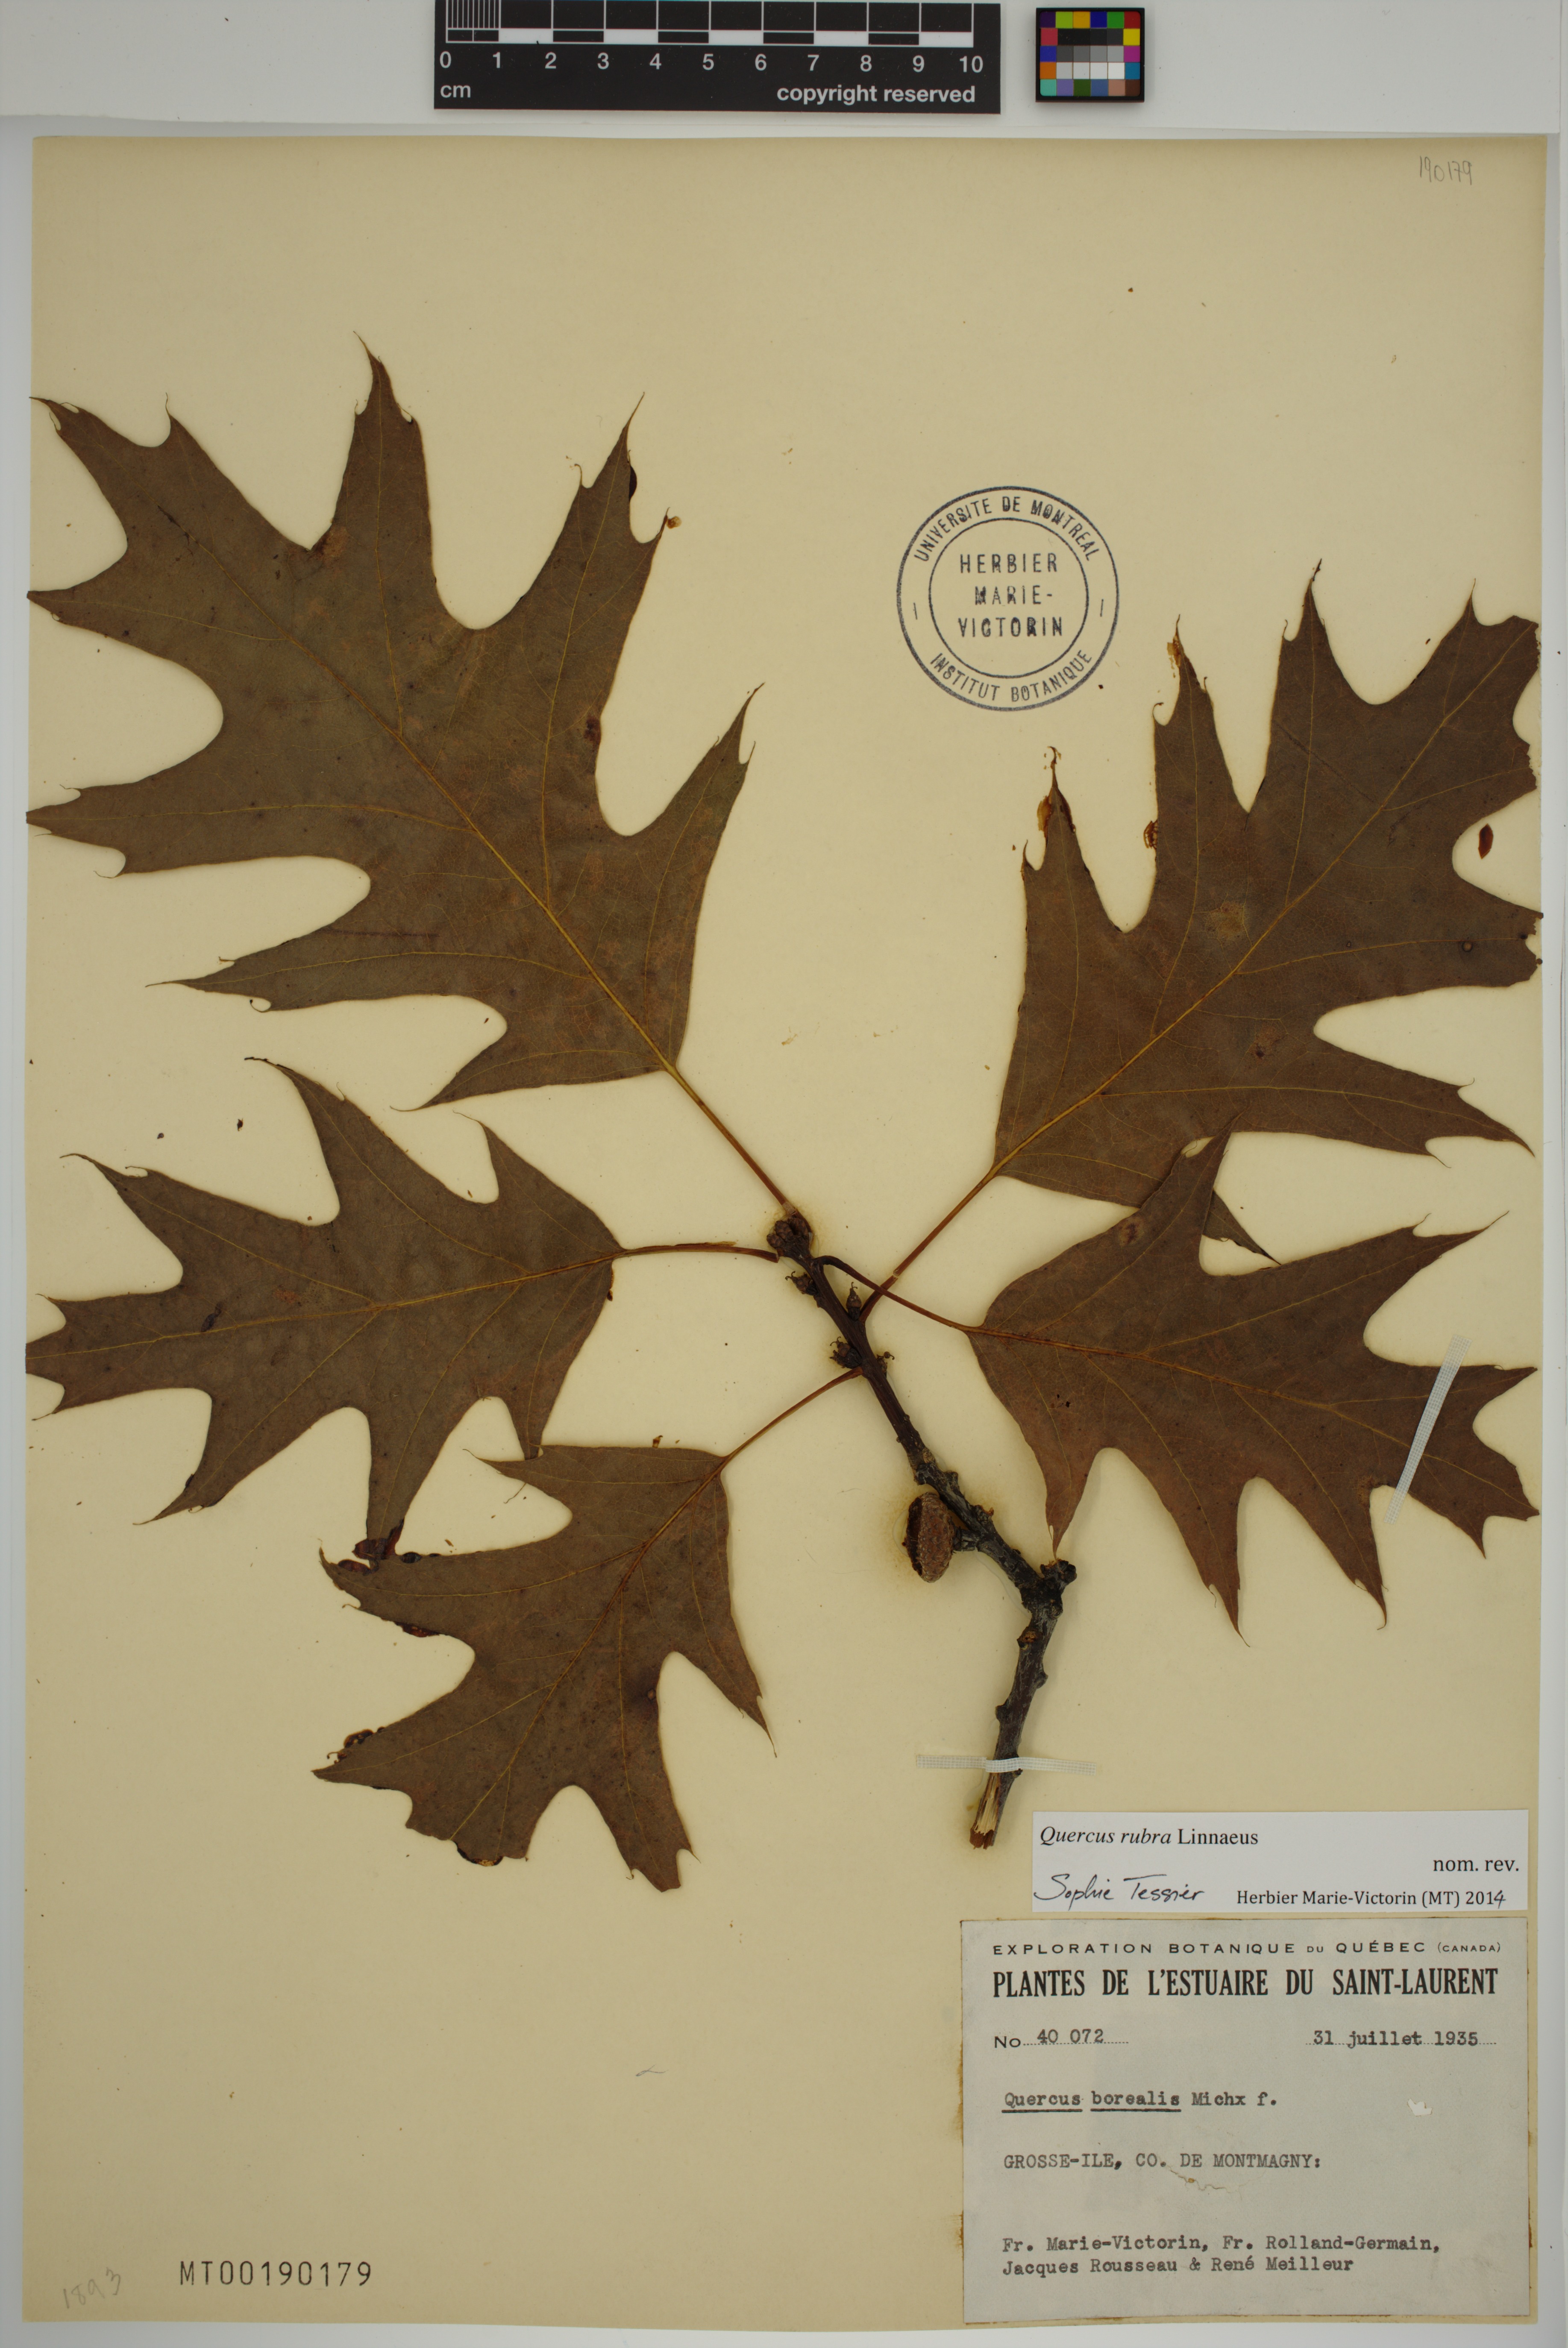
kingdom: Plantae
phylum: Tracheophyta
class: Magnoliopsida
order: Fagales
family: Fagaceae
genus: Quercus
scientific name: Quercus rubra
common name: Red oak
